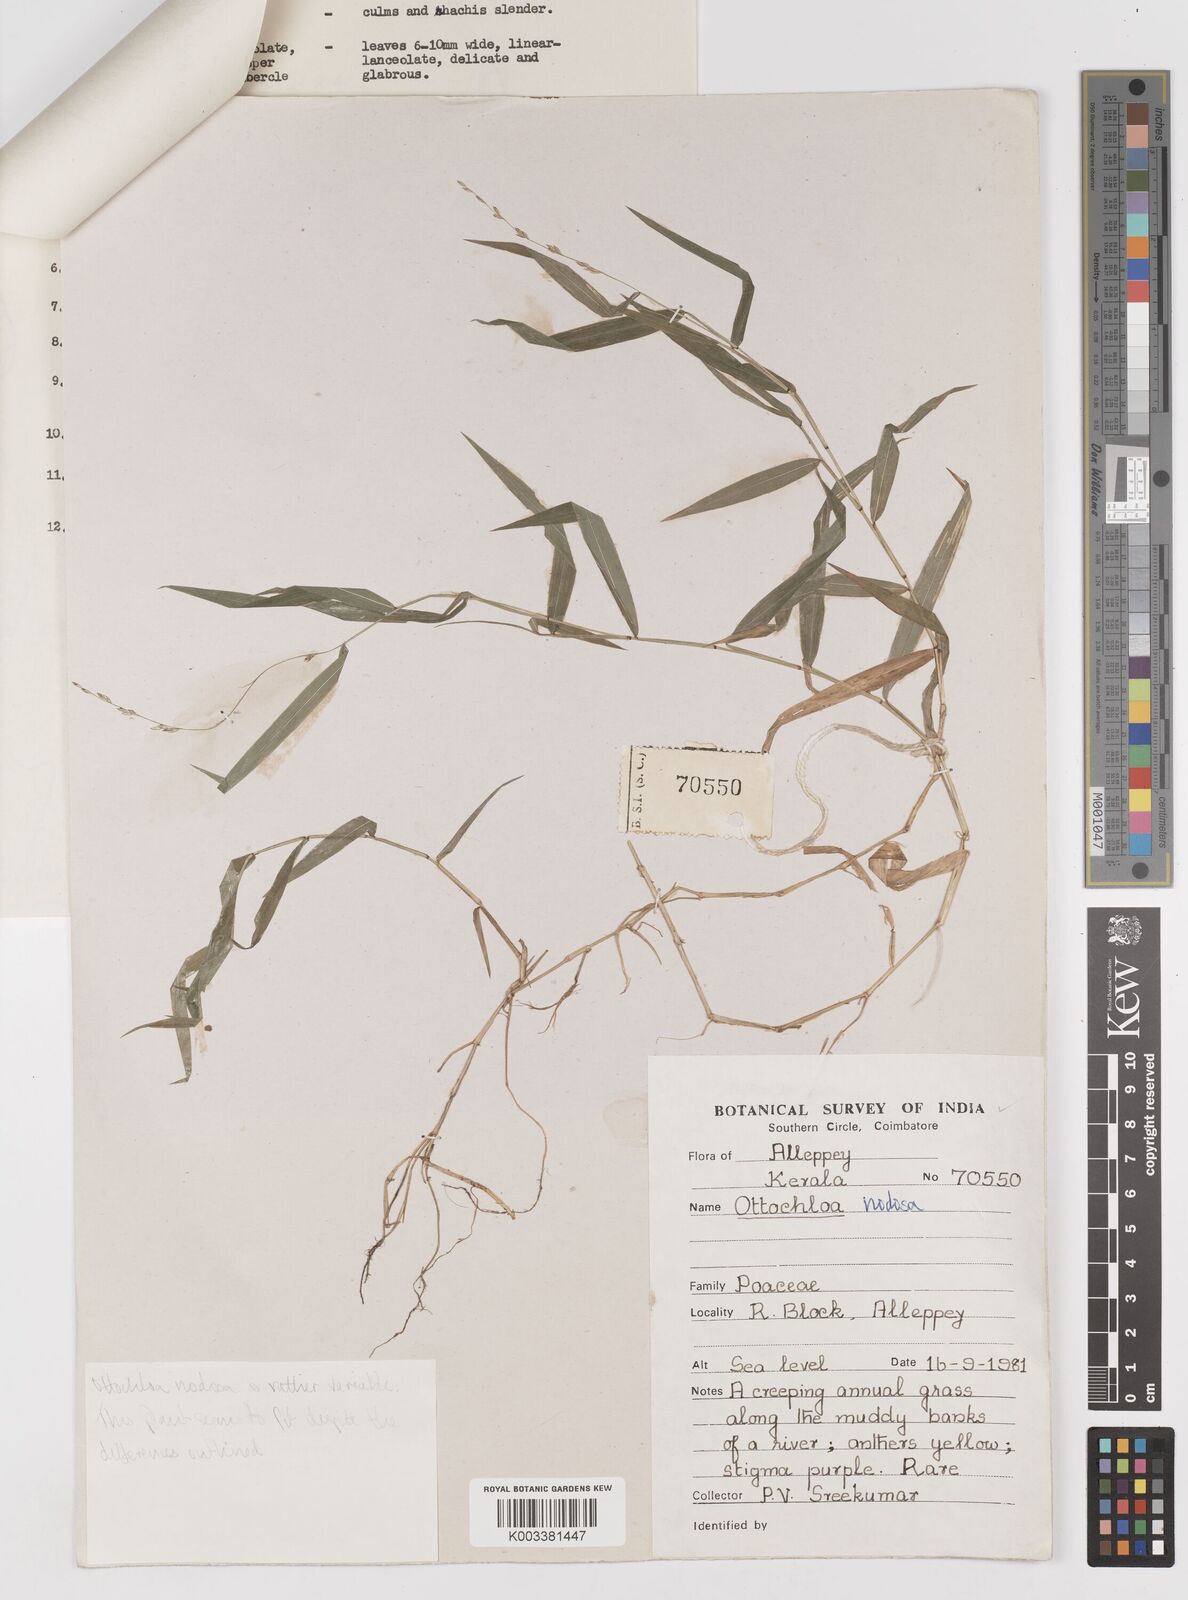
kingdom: Plantae
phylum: Tracheophyta
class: Liliopsida
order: Poales
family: Poaceae
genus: Ottochloa
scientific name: Ottochloa nodosa
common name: Slender-panic grass
